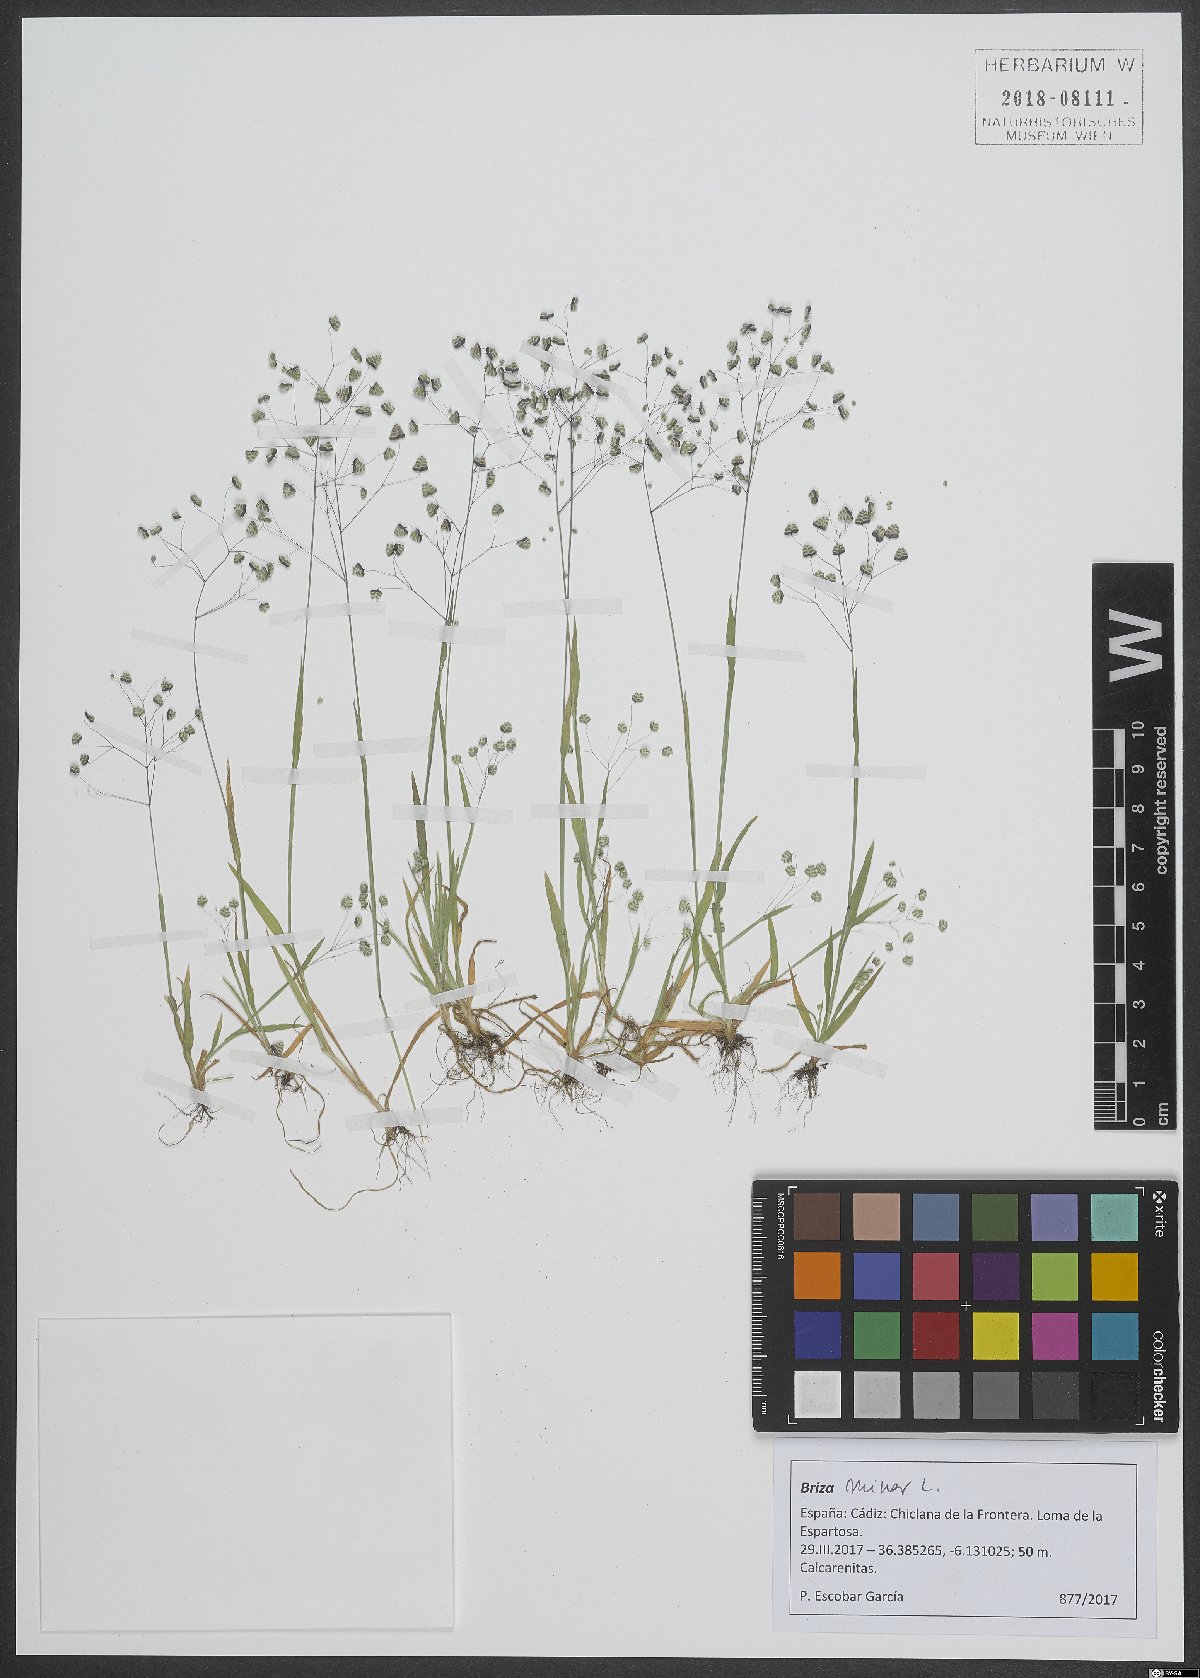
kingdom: Plantae
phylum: Tracheophyta
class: Liliopsida
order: Poales
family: Poaceae
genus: Briza
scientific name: Briza minor
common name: Lesser quaking-grass
